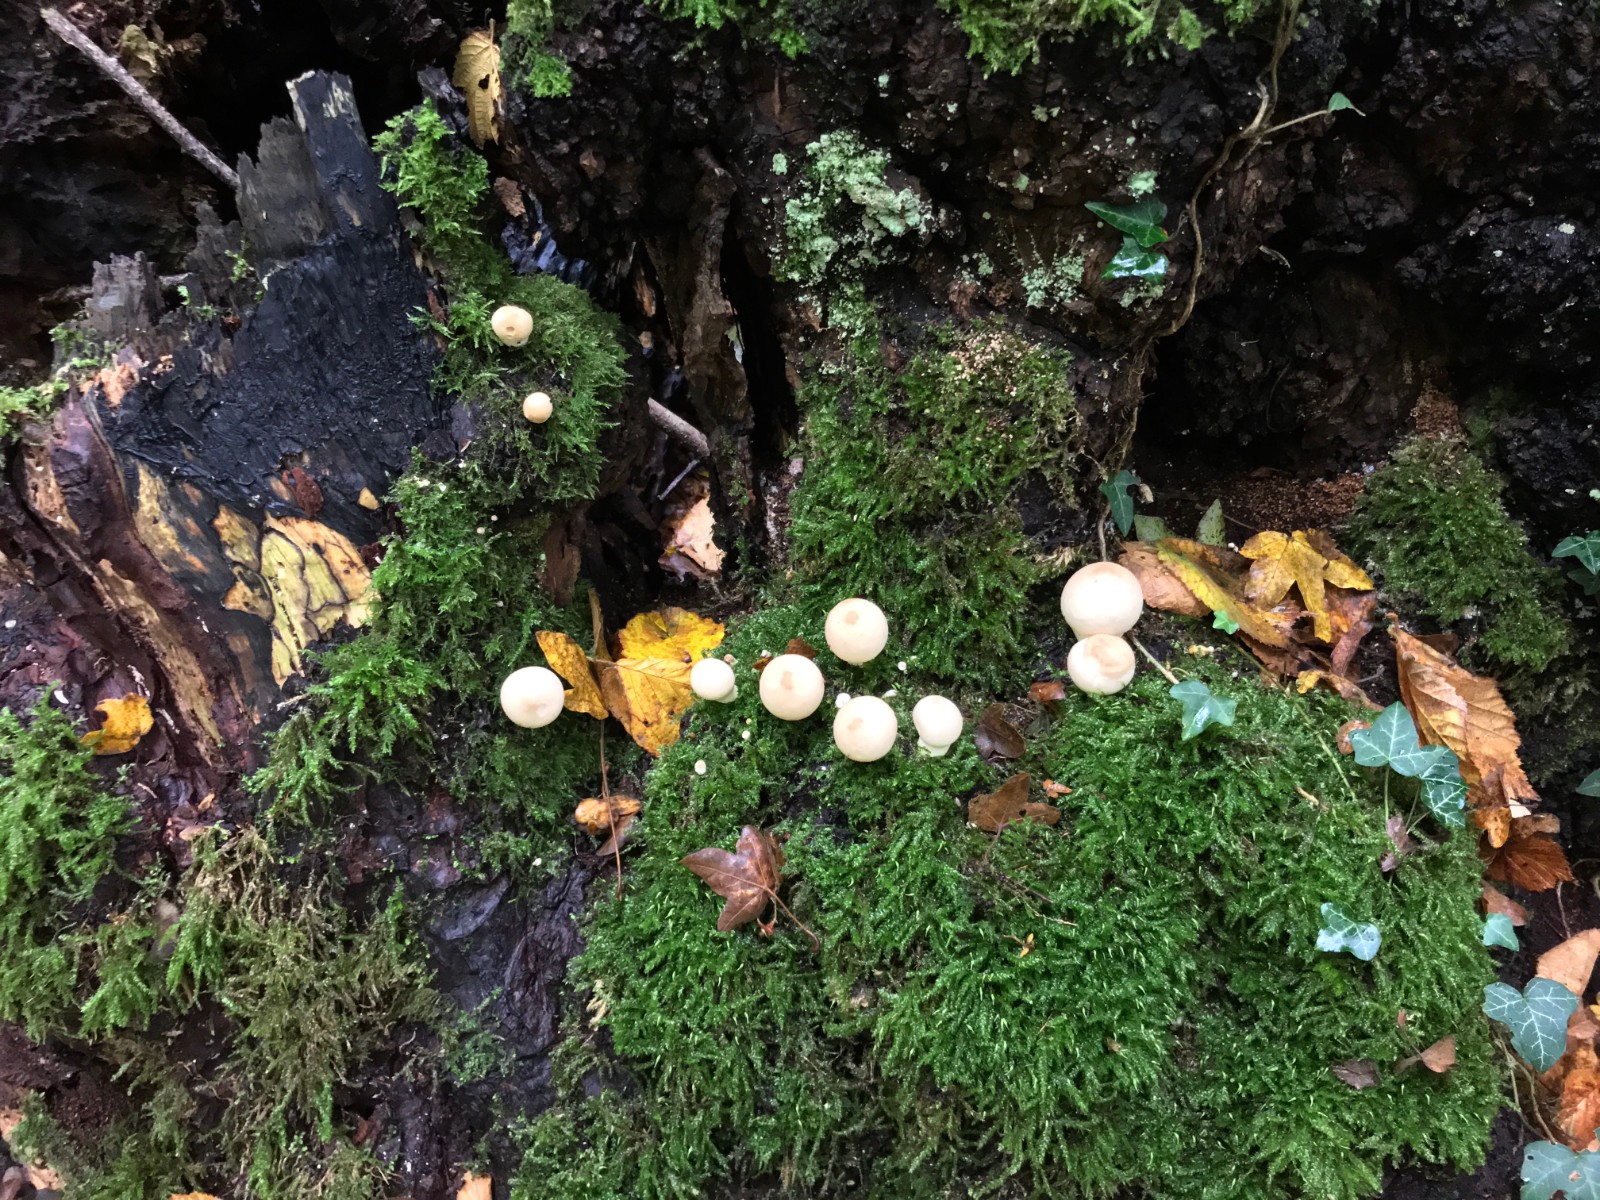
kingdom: Fungi
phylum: Basidiomycota
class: Agaricomycetes
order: Agaricales
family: Lycoperdaceae
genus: Apioperdon
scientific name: Apioperdon pyriforme
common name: pære-støvbold
